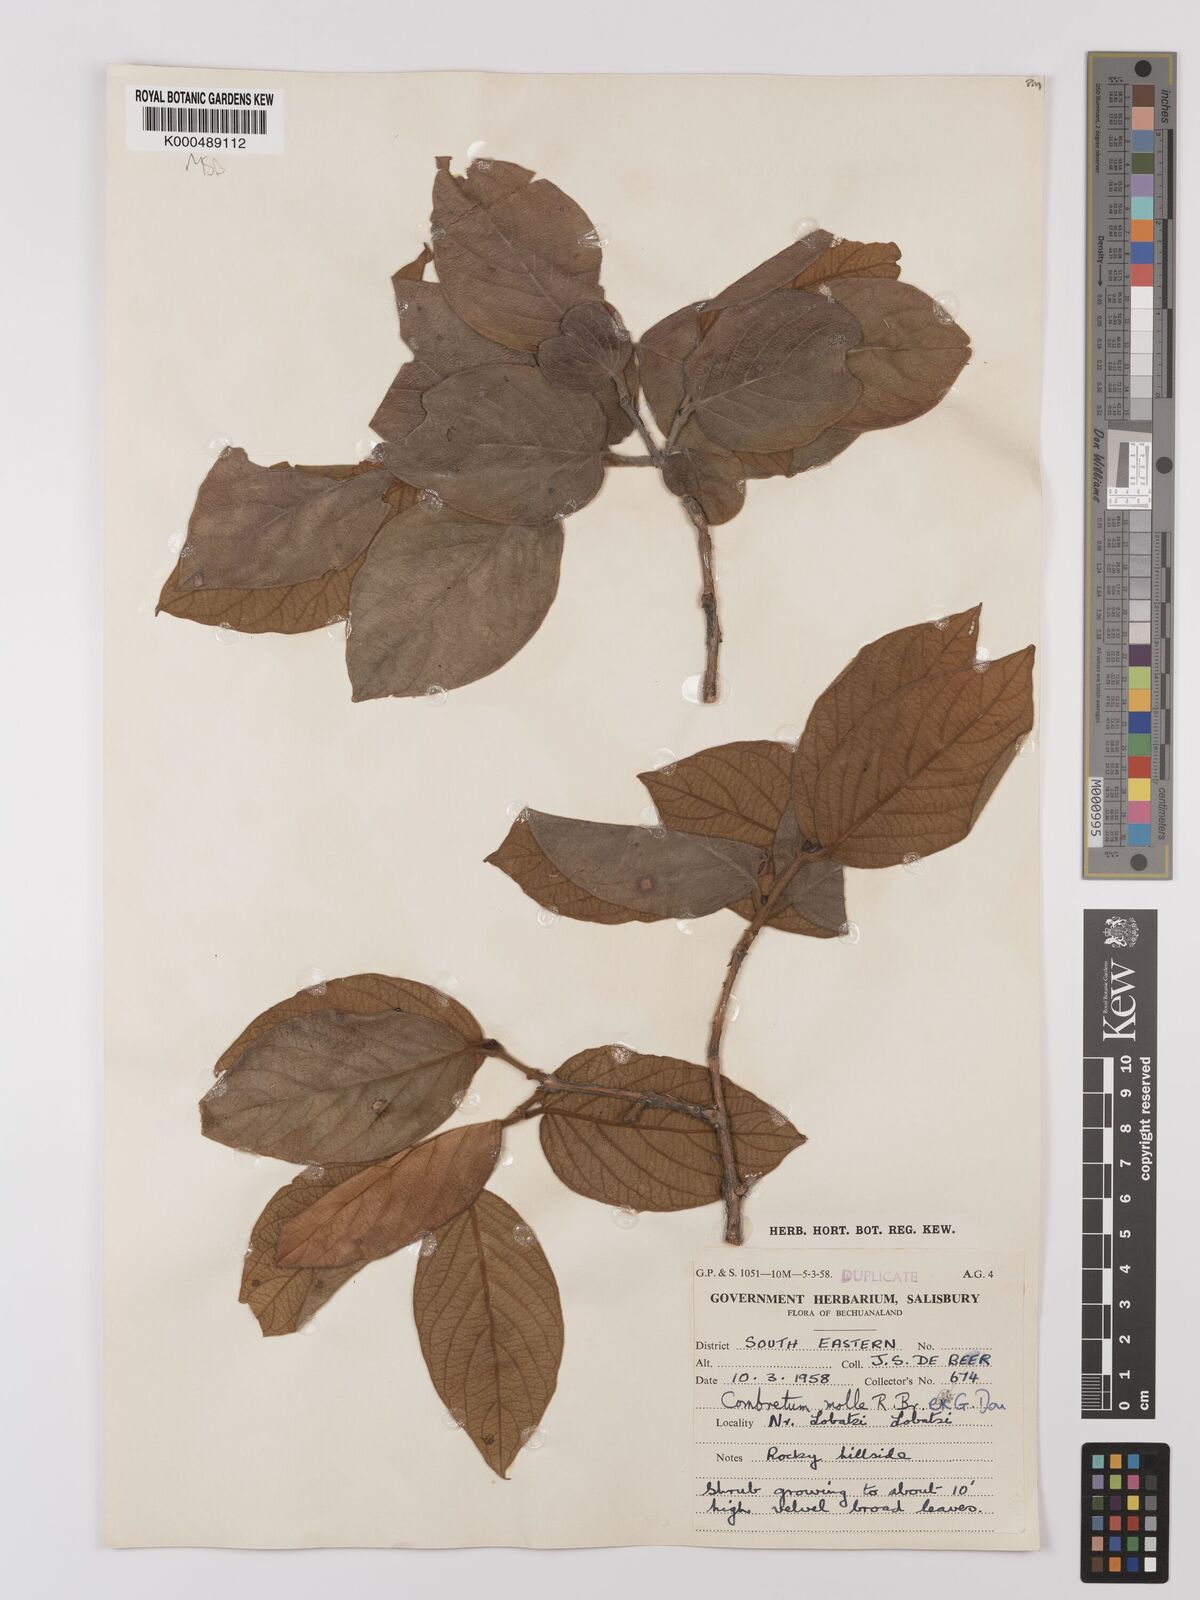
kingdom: Plantae
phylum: Tracheophyta
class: Magnoliopsida
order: Myrtales
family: Combretaceae
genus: Combretum
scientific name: Combretum molle
